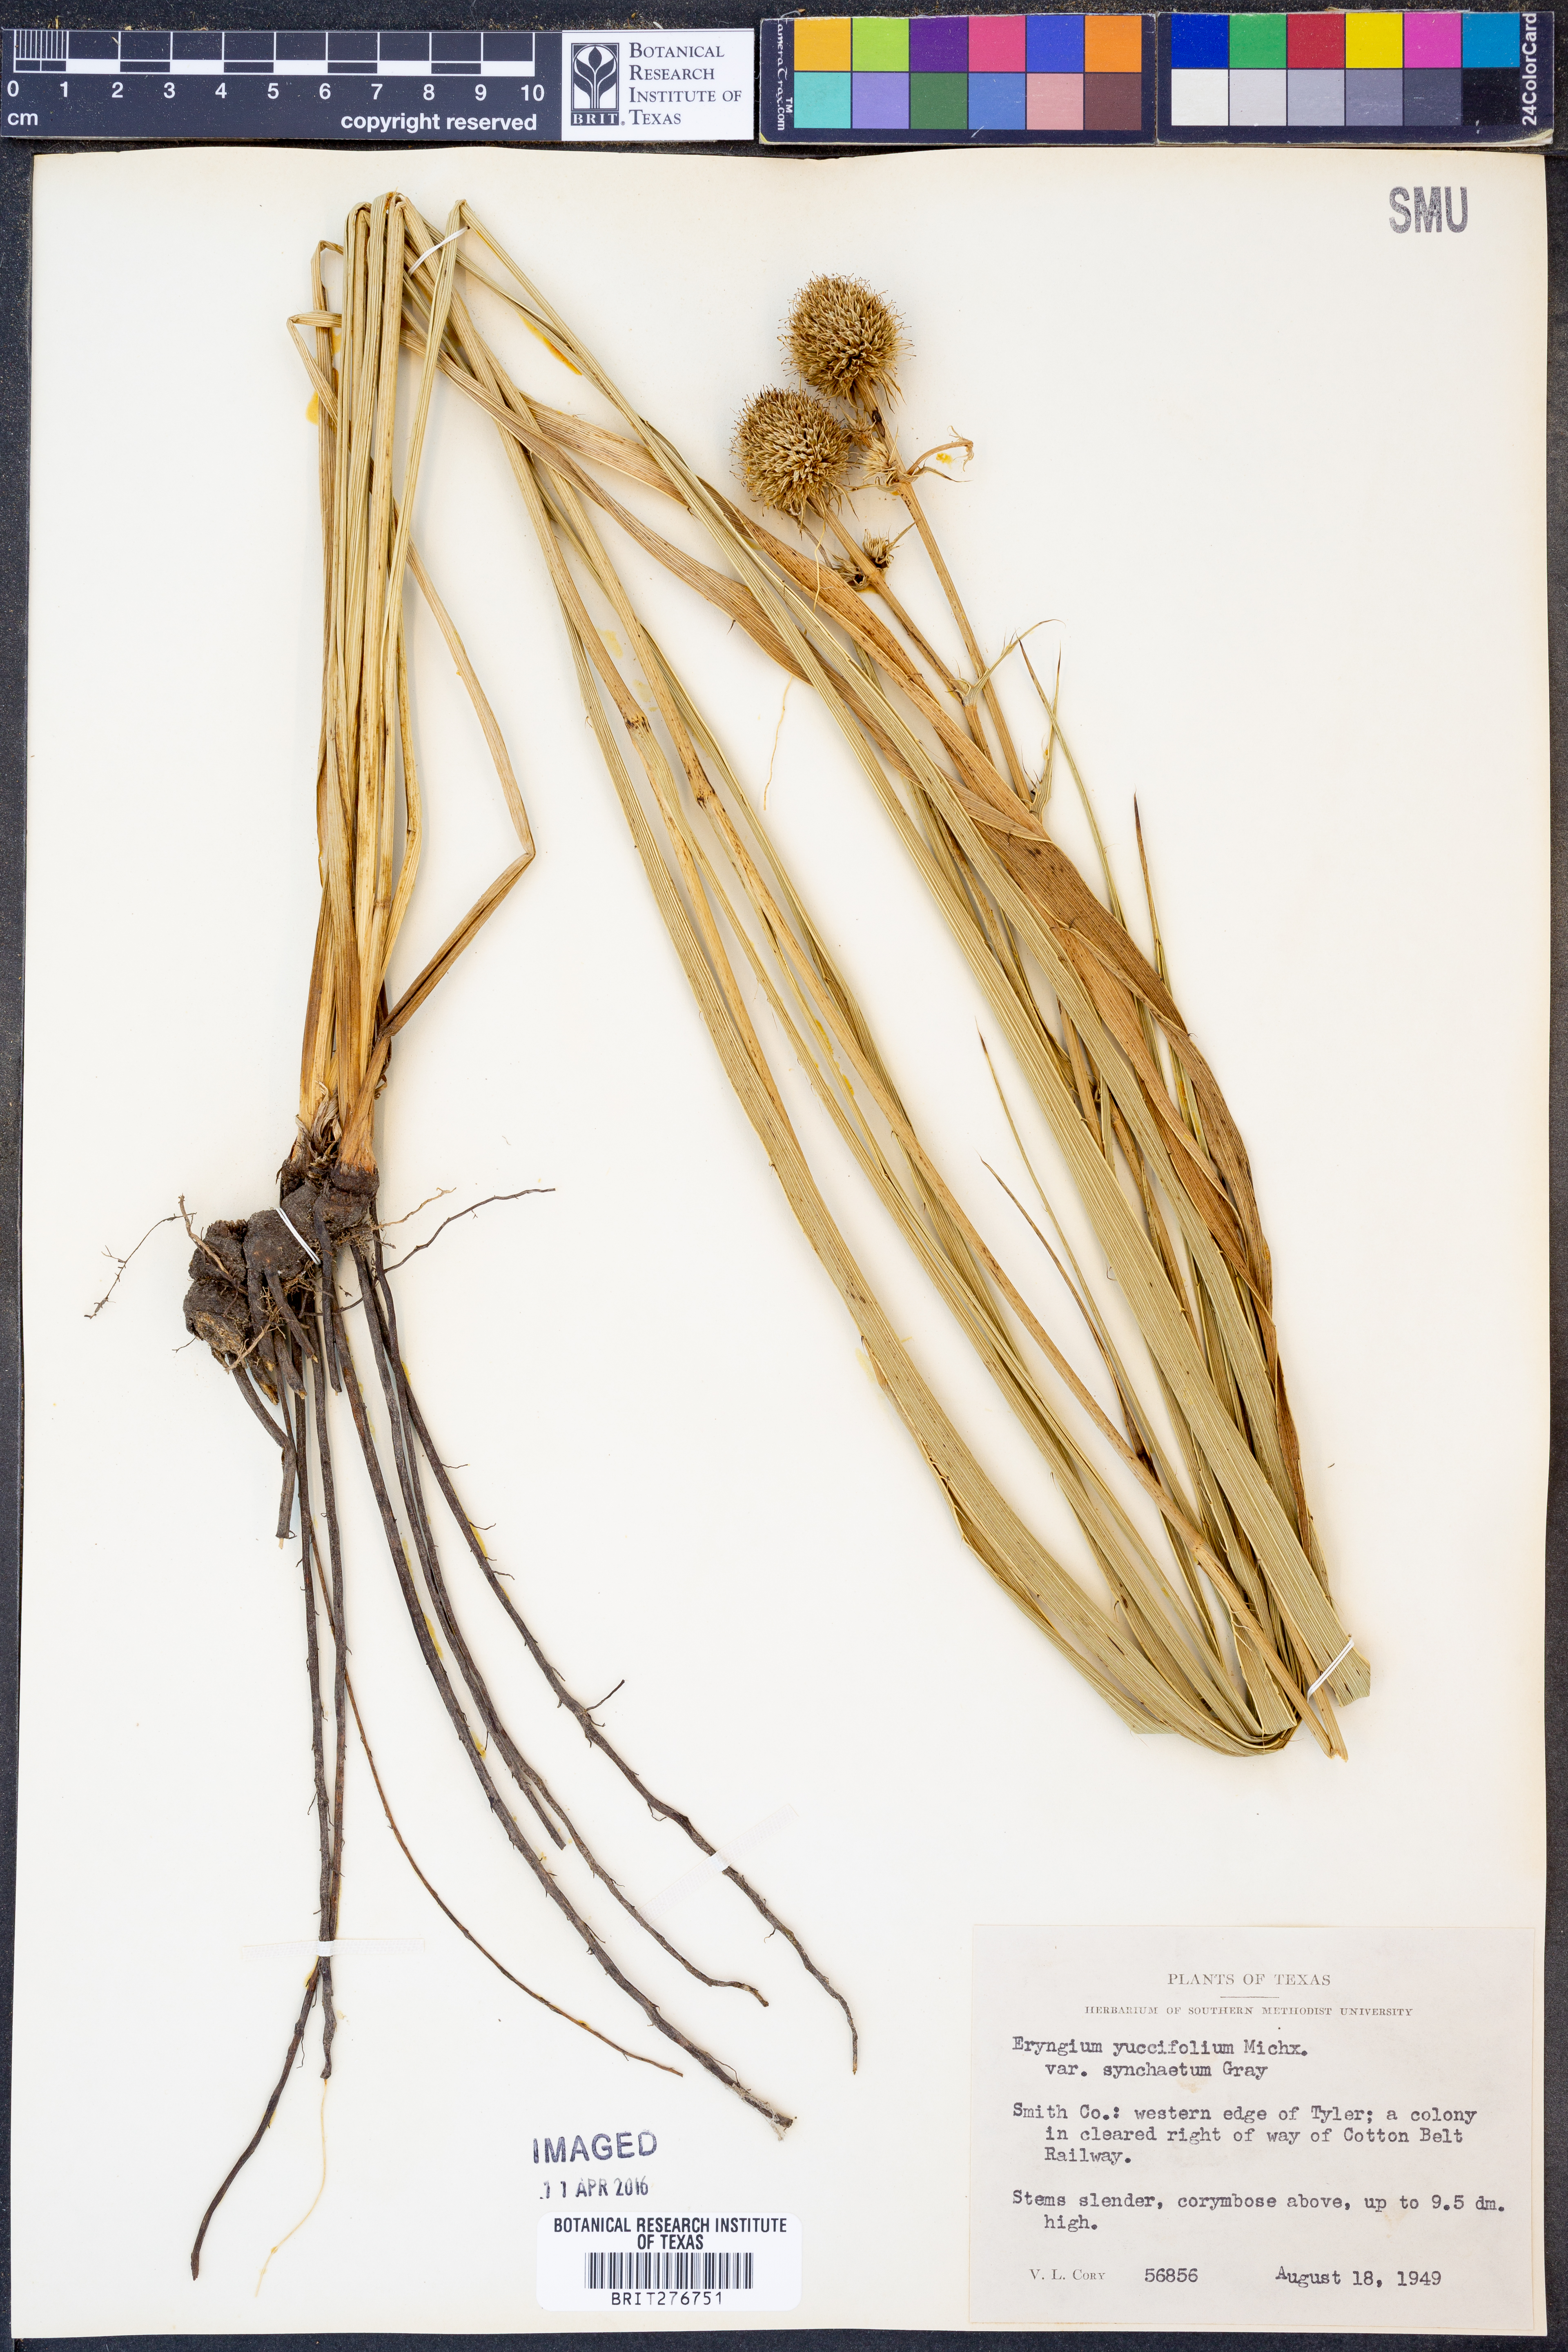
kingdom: Plantae
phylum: Tracheophyta
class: Magnoliopsida
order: Apiales
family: Apiaceae
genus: Eryngium
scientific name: Eryngium yuccifolium
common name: Button eryngo
